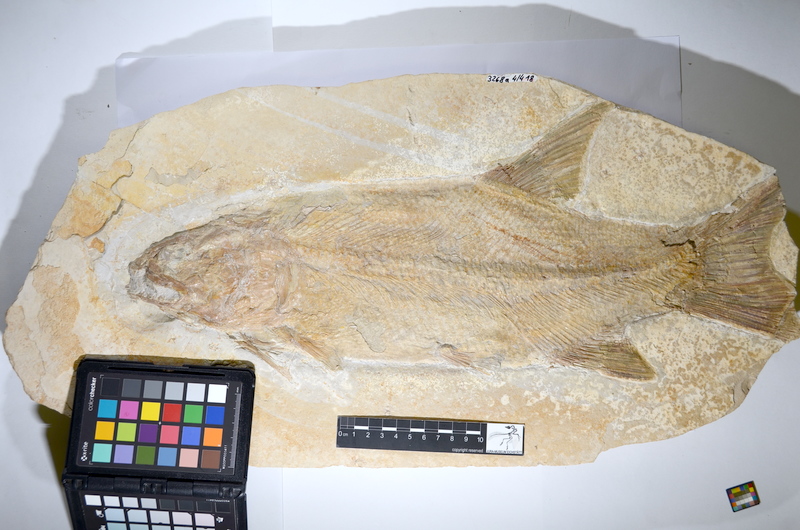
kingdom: Animalia
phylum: Chordata
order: Amiiformes
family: Ionoscopidae
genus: Ionoscopus
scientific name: Ionoscopus cyprinoides
